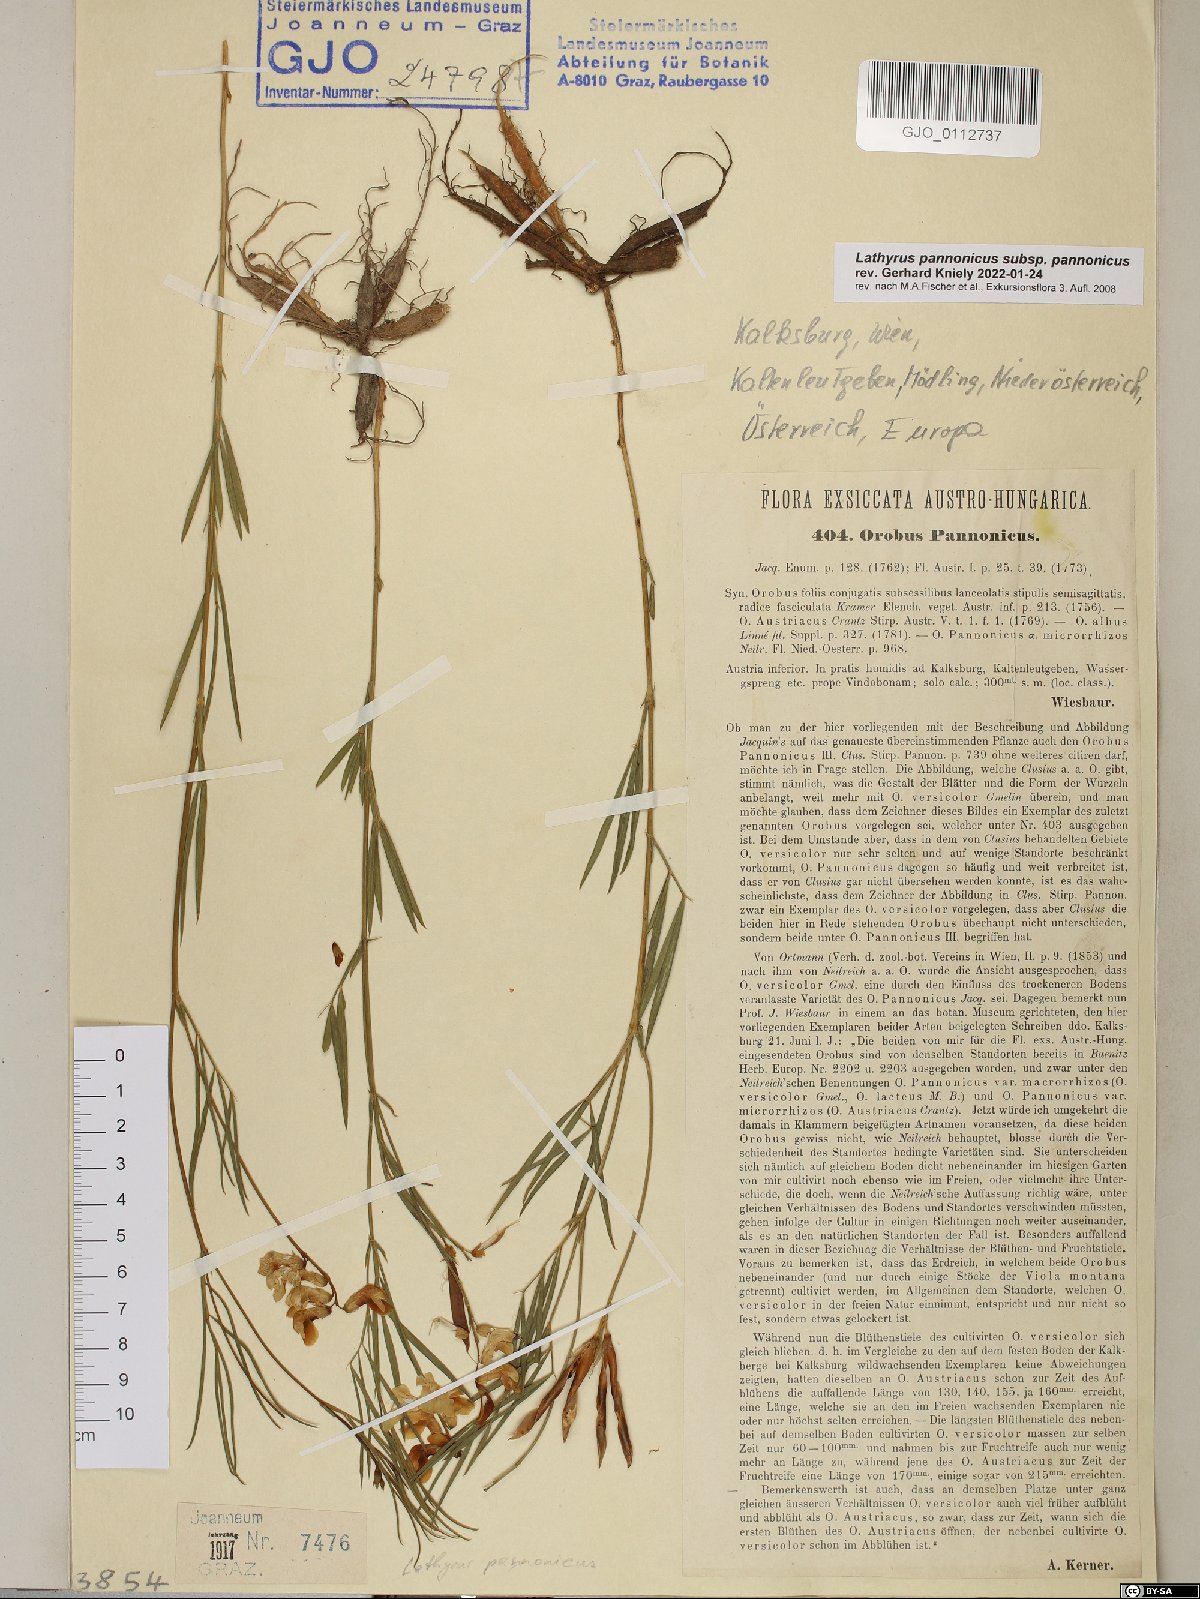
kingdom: Plantae
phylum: Tracheophyta
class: Magnoliopsida
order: Fabales
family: Fabaceae
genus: Lathyrus
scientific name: Lathyrus pannonicus
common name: Pea
